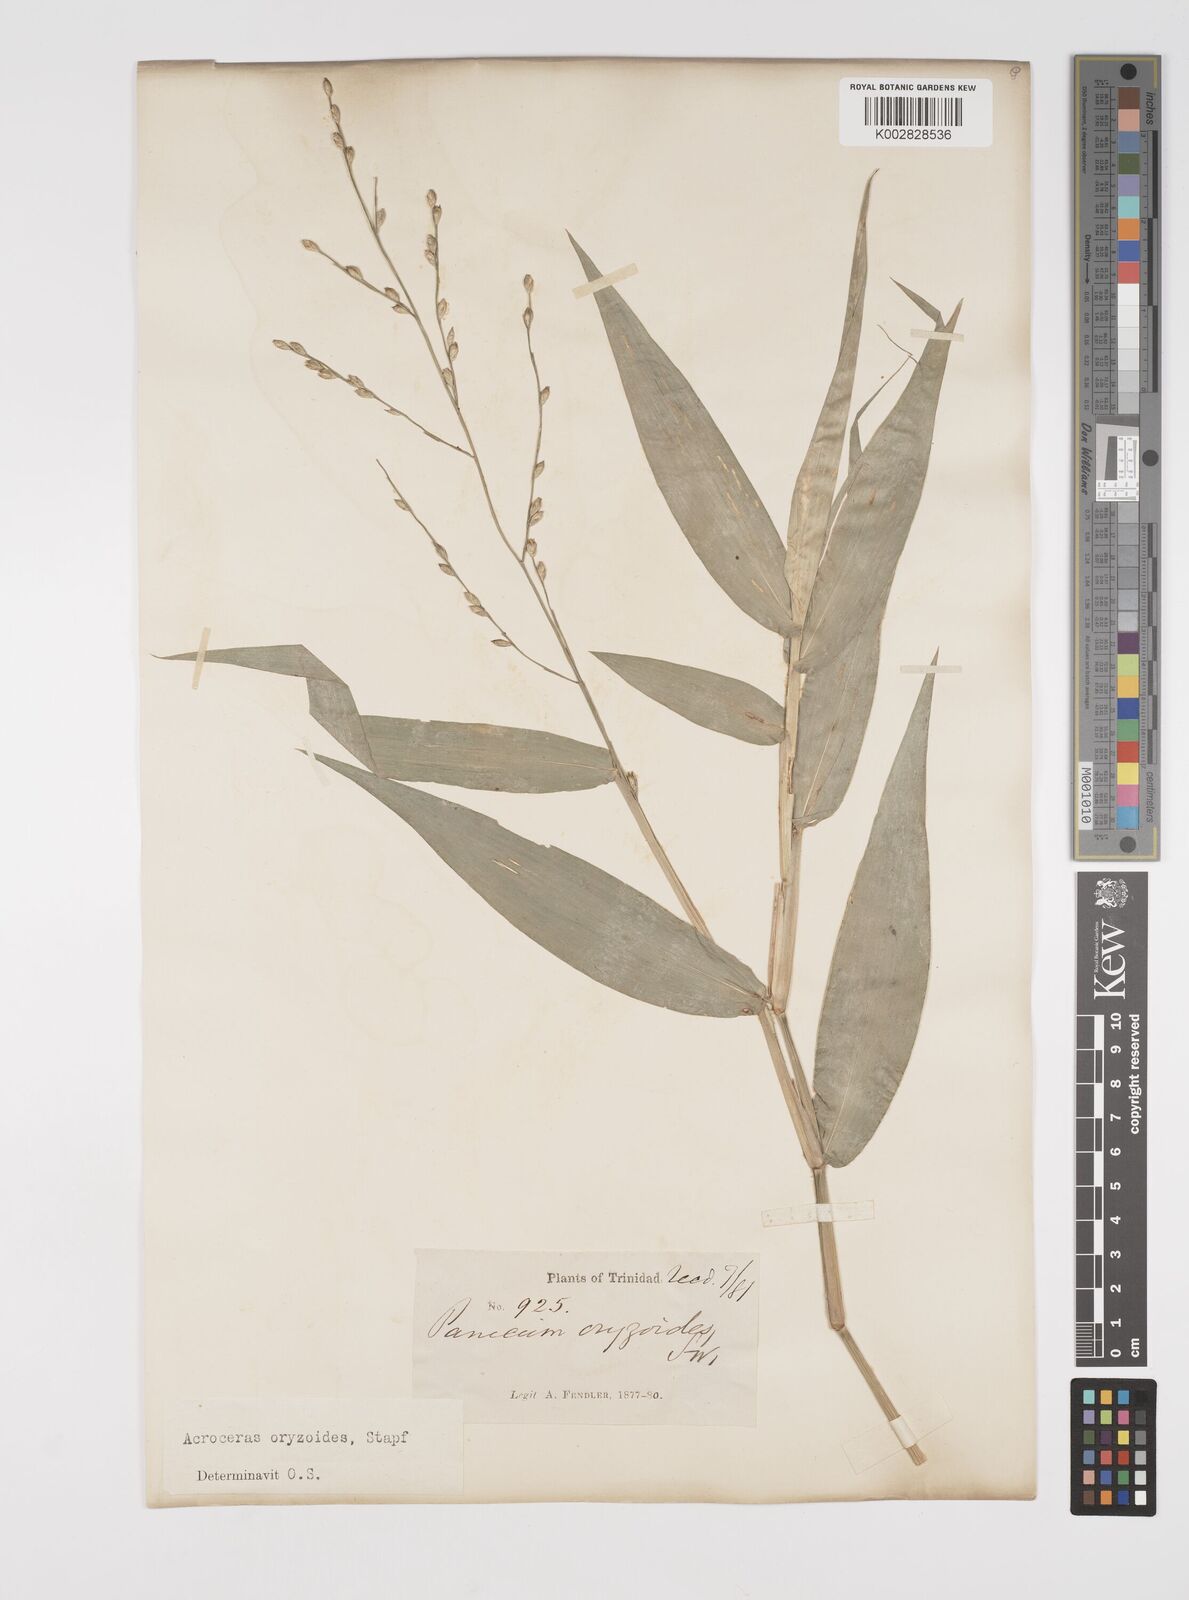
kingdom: Plantae
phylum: Tracheophyta
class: Liliopsida
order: Poales
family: Poaceae
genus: Acroceras
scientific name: Acroceras zizanioides
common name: Oat grass
